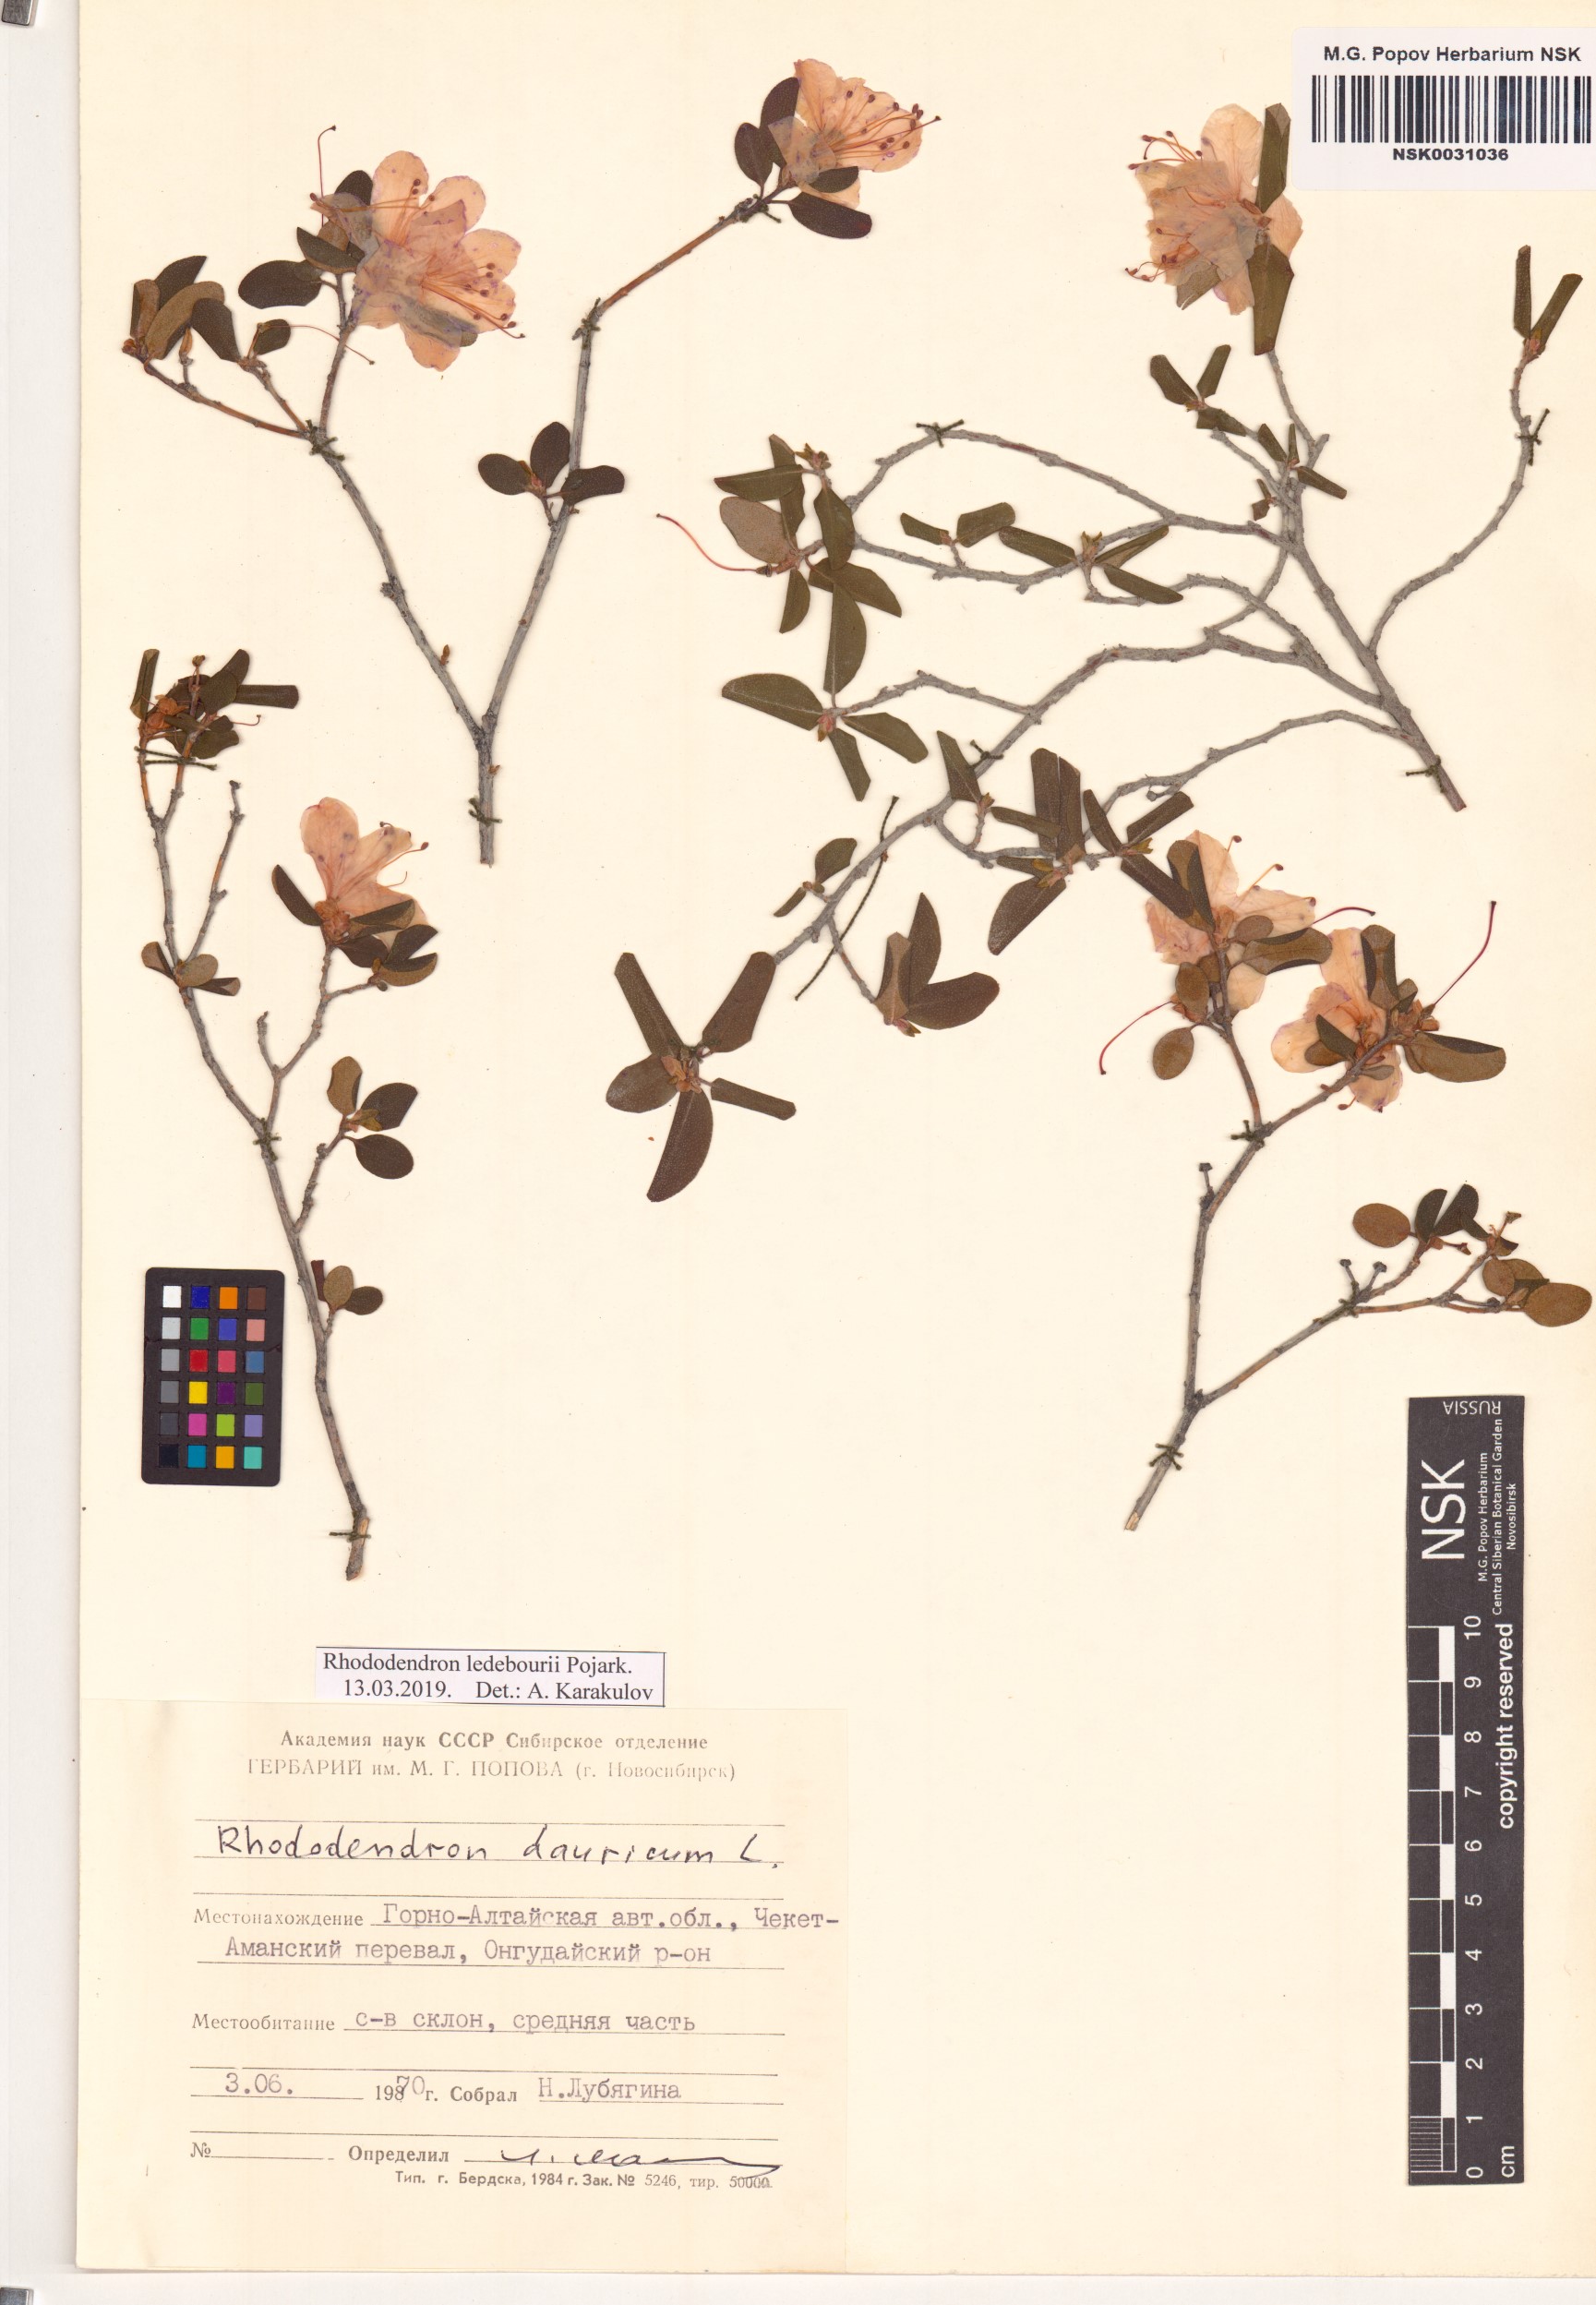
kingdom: Plantae
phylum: Tracheophyta
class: Magnoliopsida
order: Ericales
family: Ericaceae
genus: Rhododendron
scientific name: Rhododendron dauricum
